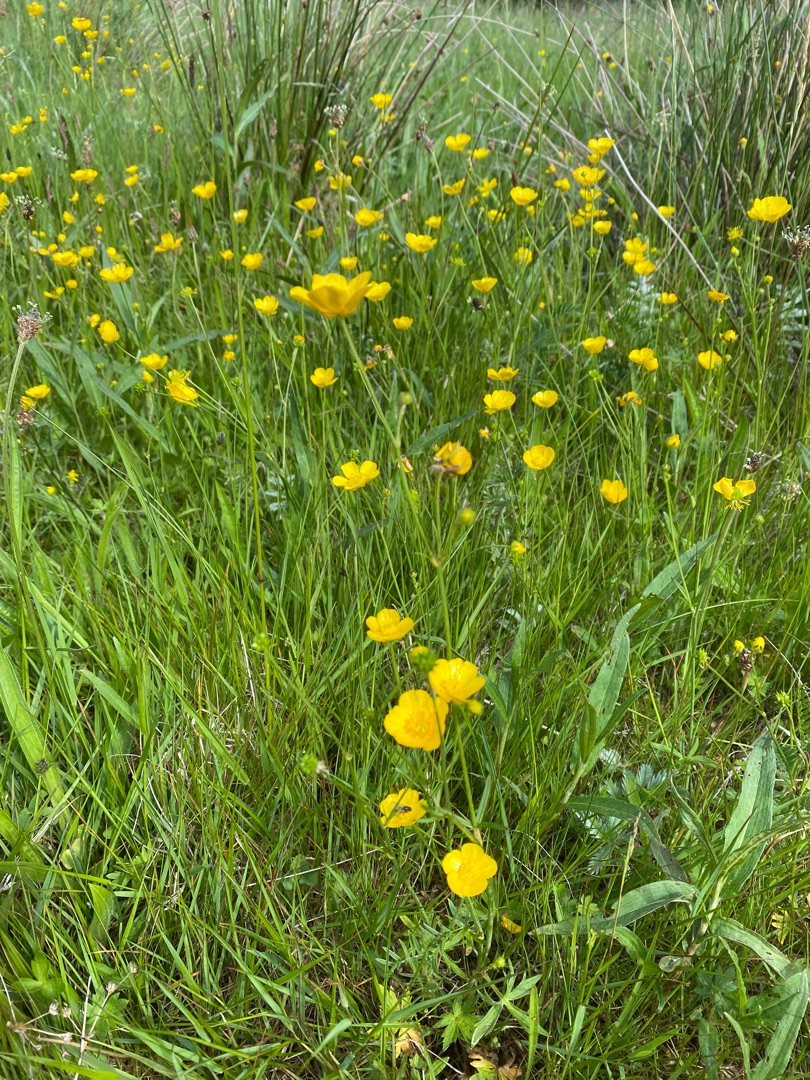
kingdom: Plantae
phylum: Tracheophyta
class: Magnoliopsida
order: Ranunculales
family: Ranunculaceae
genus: Ranunculus
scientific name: Ranunculus acris
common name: Bidende ranunkel
